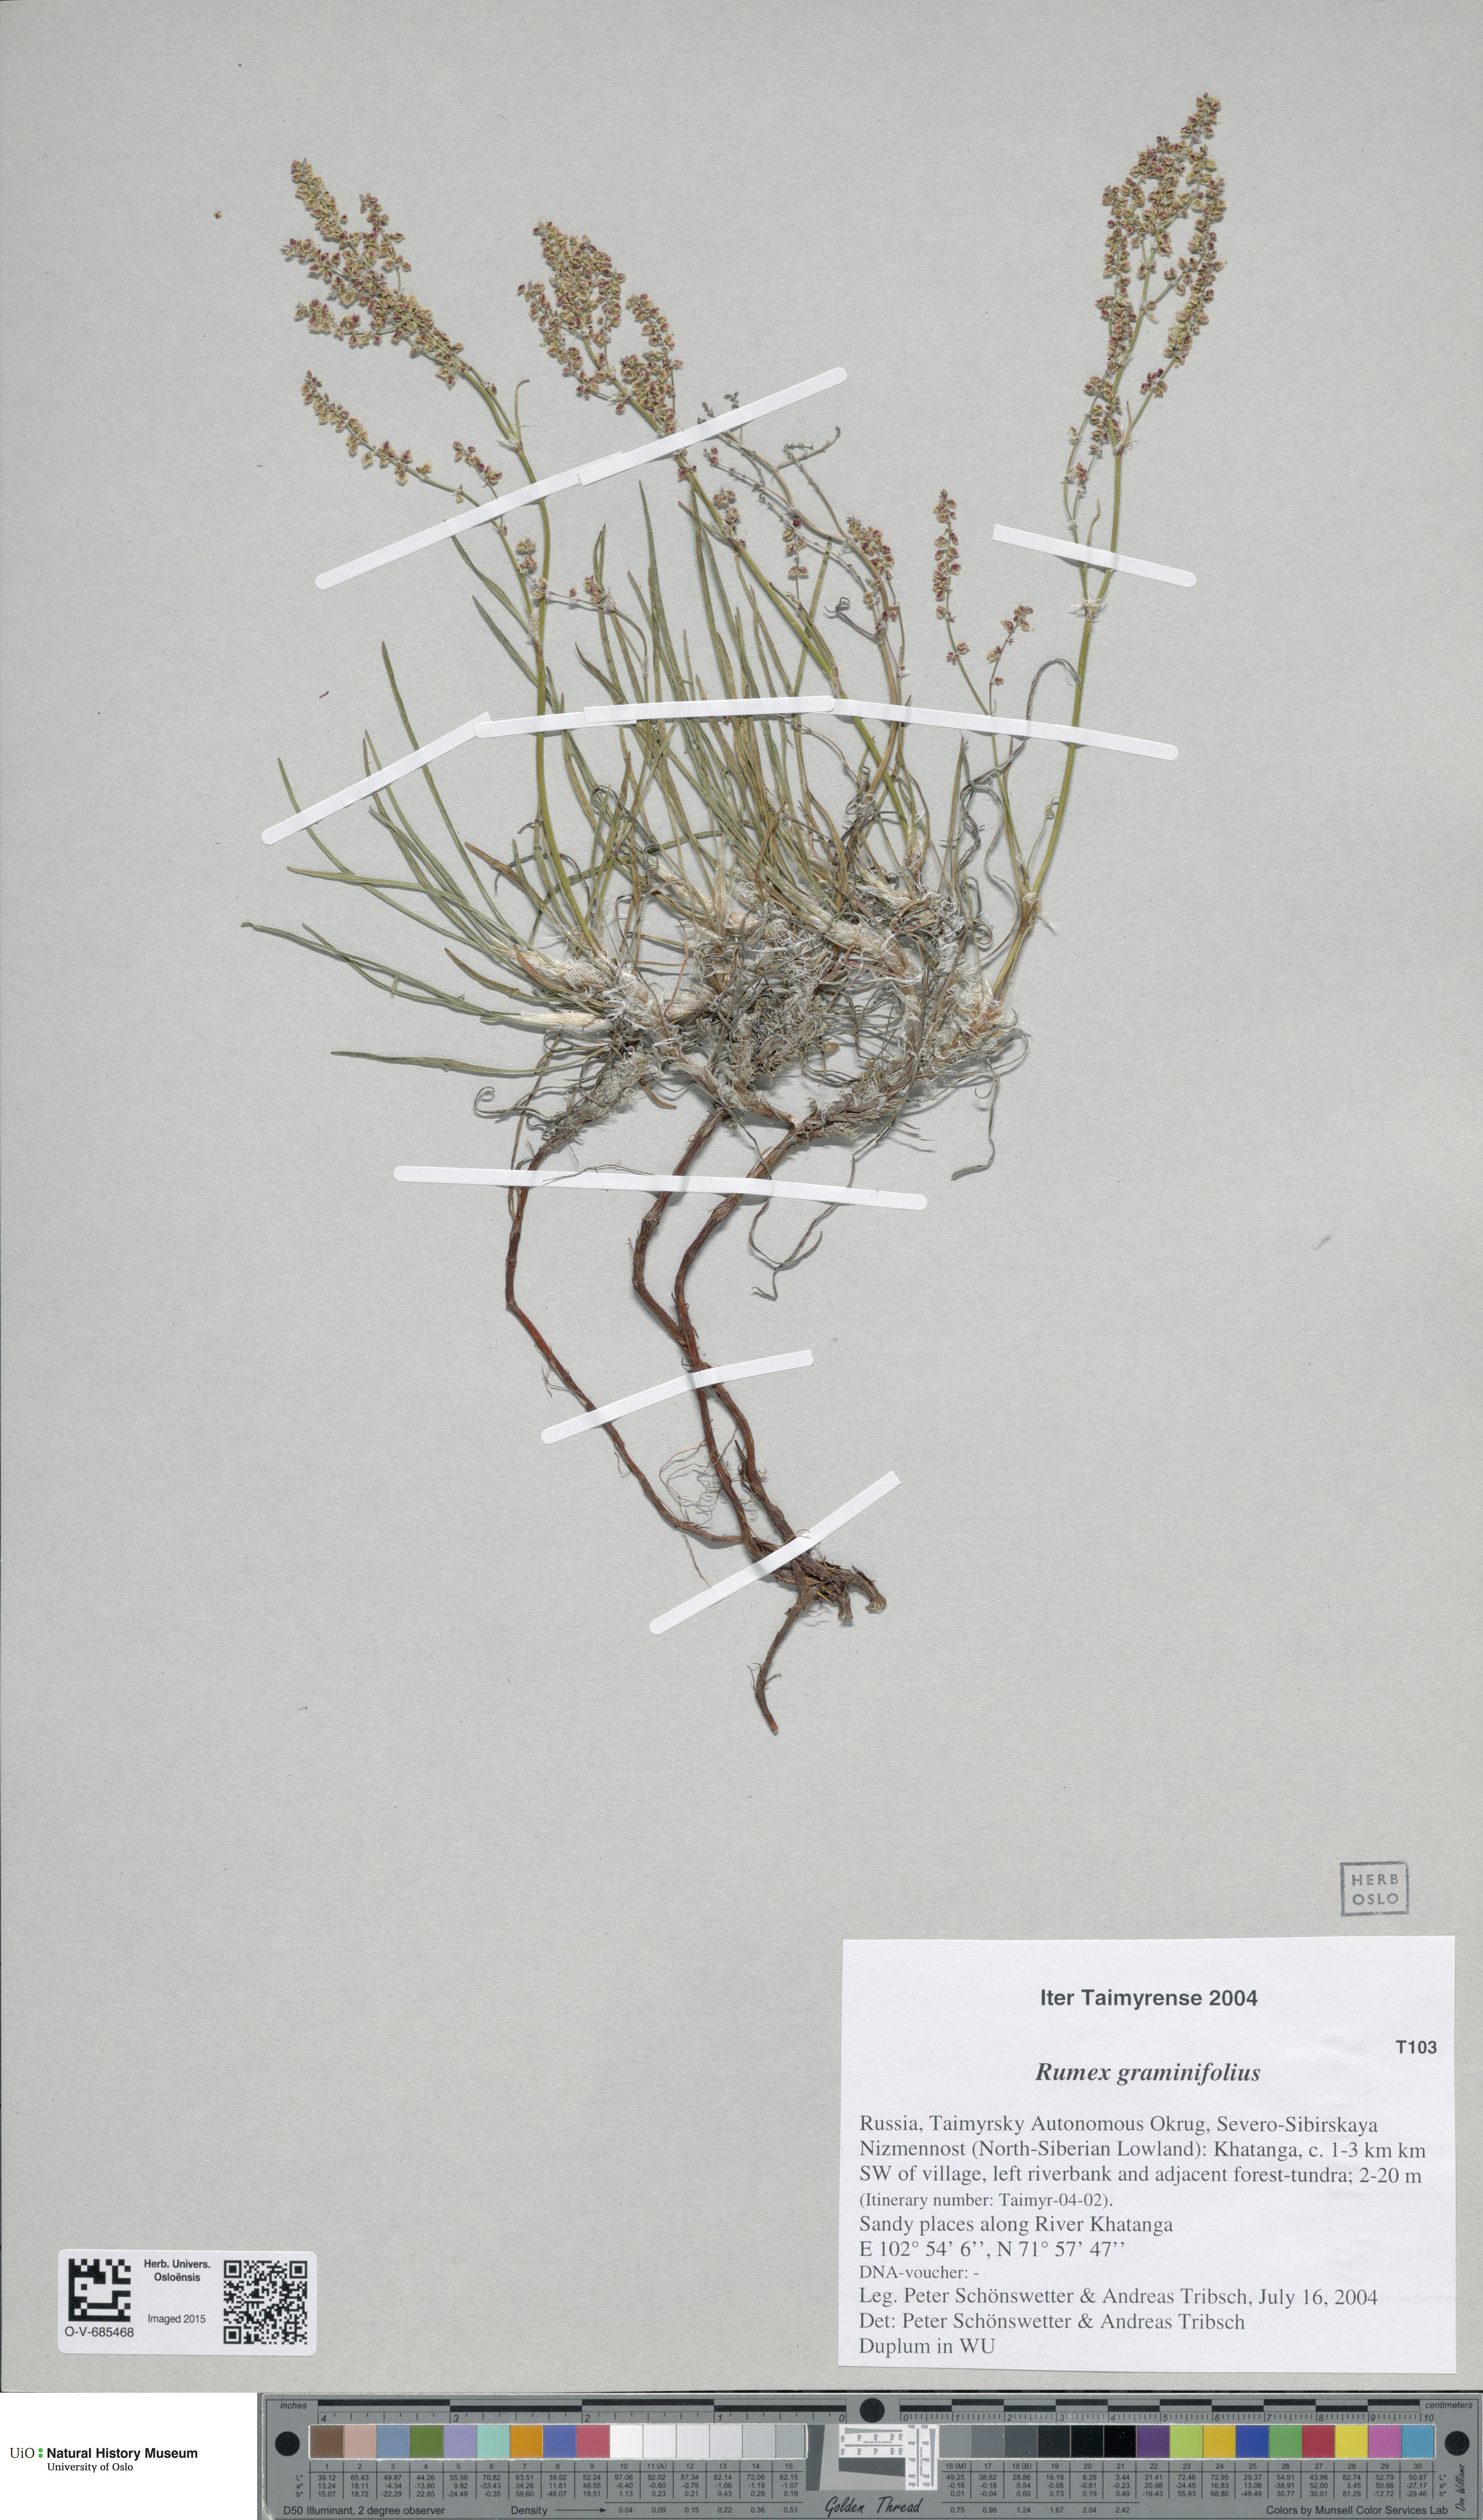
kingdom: Plantae
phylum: Tracheophyta
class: Magnoliopsida
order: Caryophyllales
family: Polygonaceae
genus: Rumex
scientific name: Rumex graminifolius
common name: Grass-leaved sorrel
